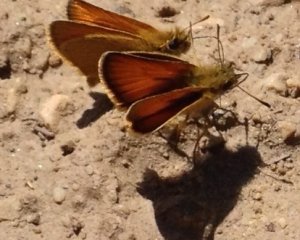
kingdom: Animalia
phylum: Arthropoda
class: Insecta
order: Lepidoptera
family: Hesperiidae
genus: Thymelicus
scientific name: Thymelicus lineola
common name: European Skipper
